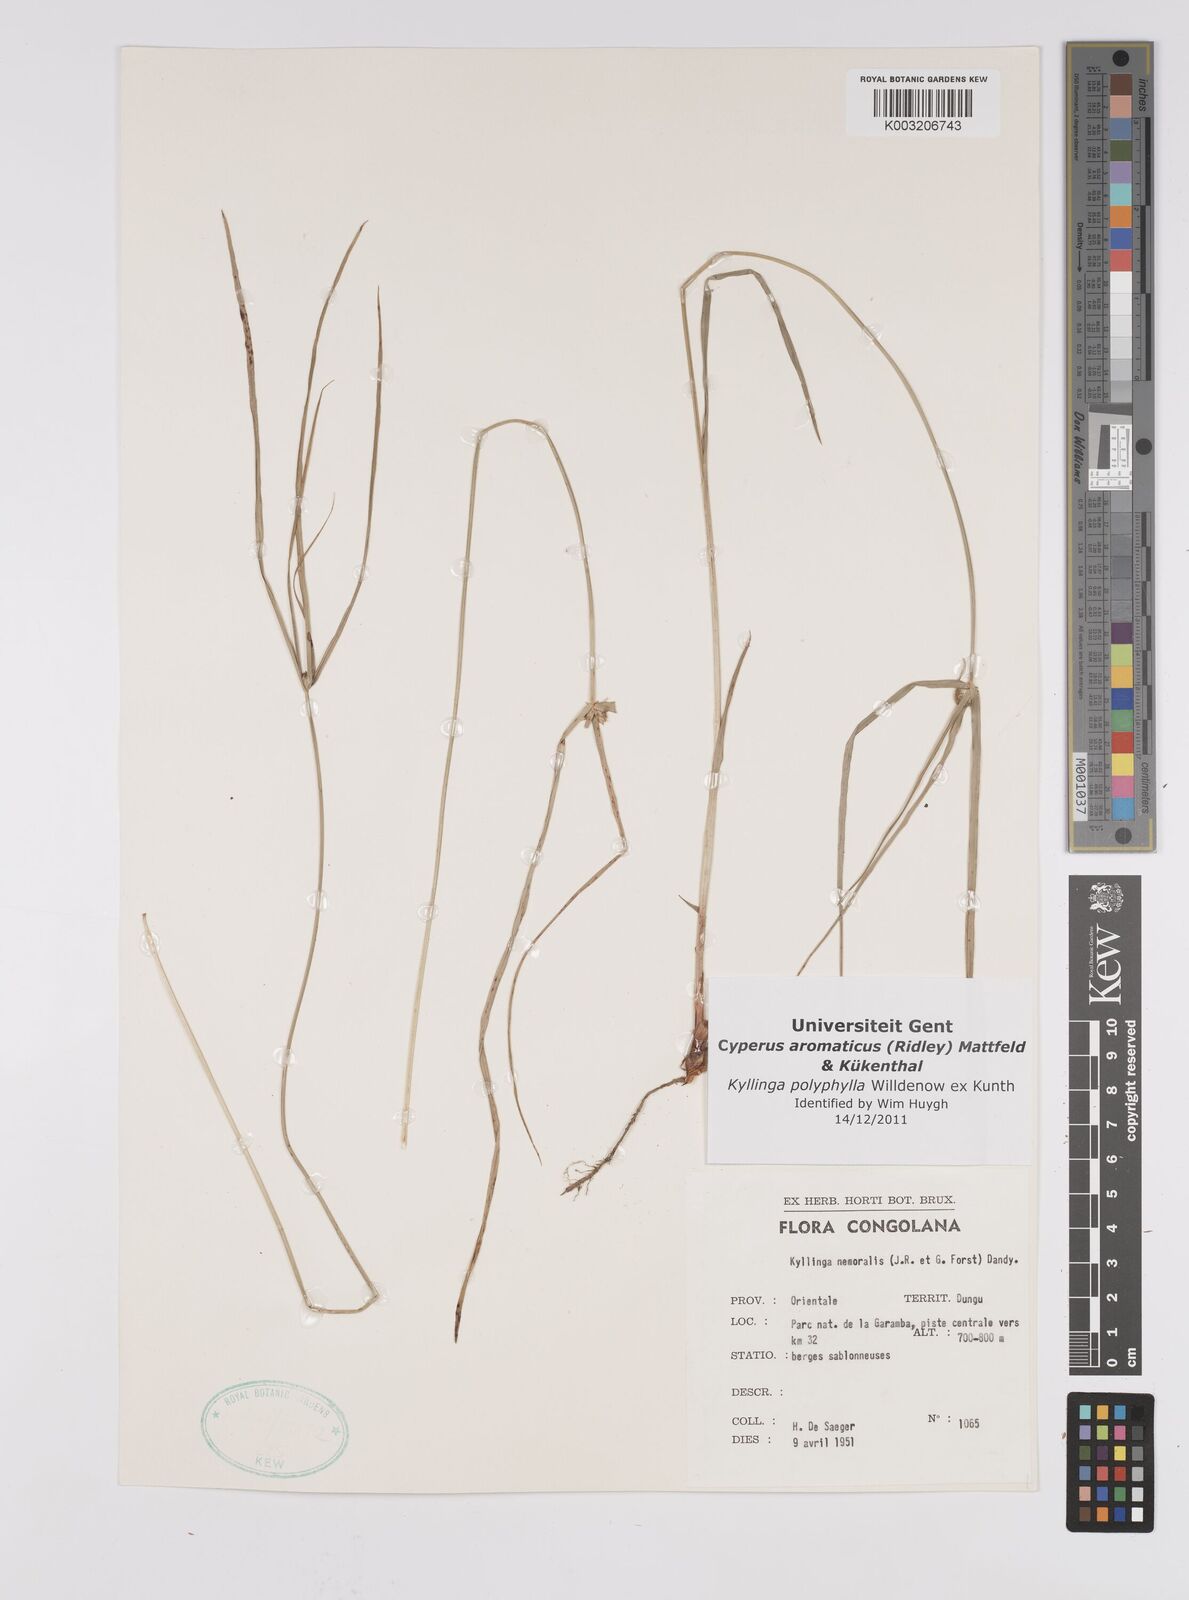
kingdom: Plantae
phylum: Tracheophyta
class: Liliopsida
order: Poales
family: Cyperaceae
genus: Cyperus
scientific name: Cyperus
